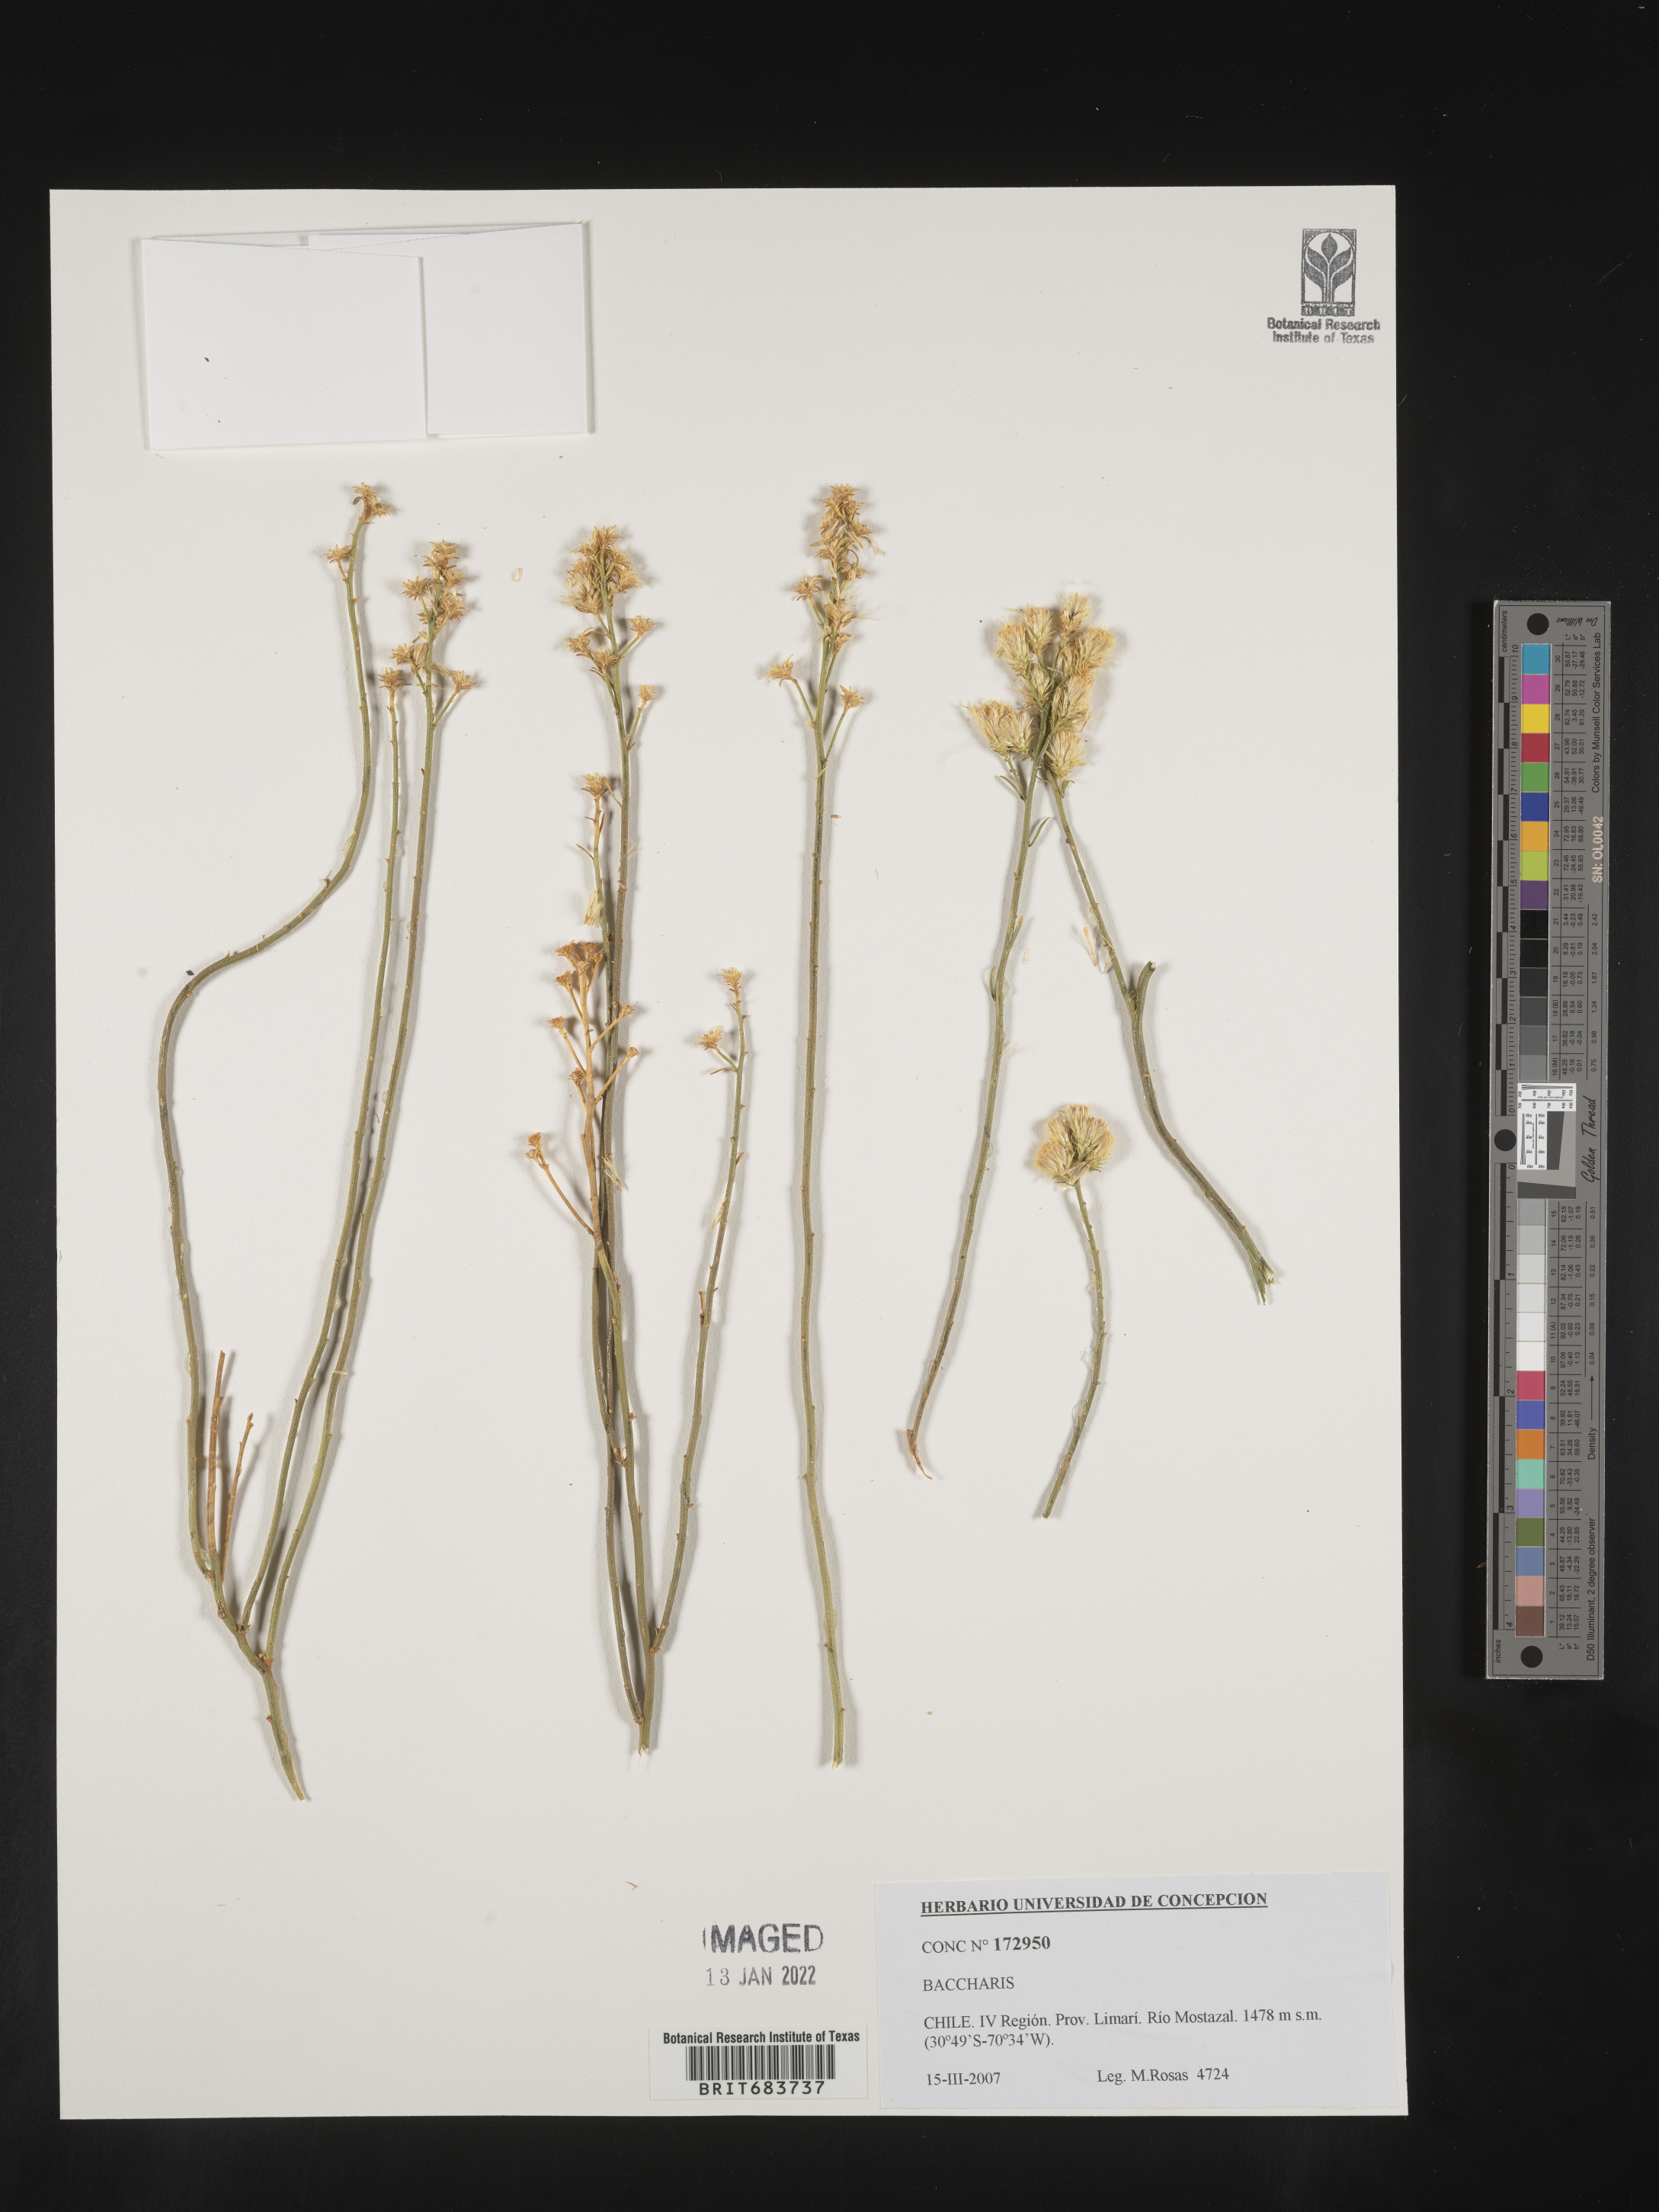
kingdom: Plantae
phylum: Tracheophyta
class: Magnoliopsida
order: Asterales
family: Asteraceae
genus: Baccharis
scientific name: Baccharis
